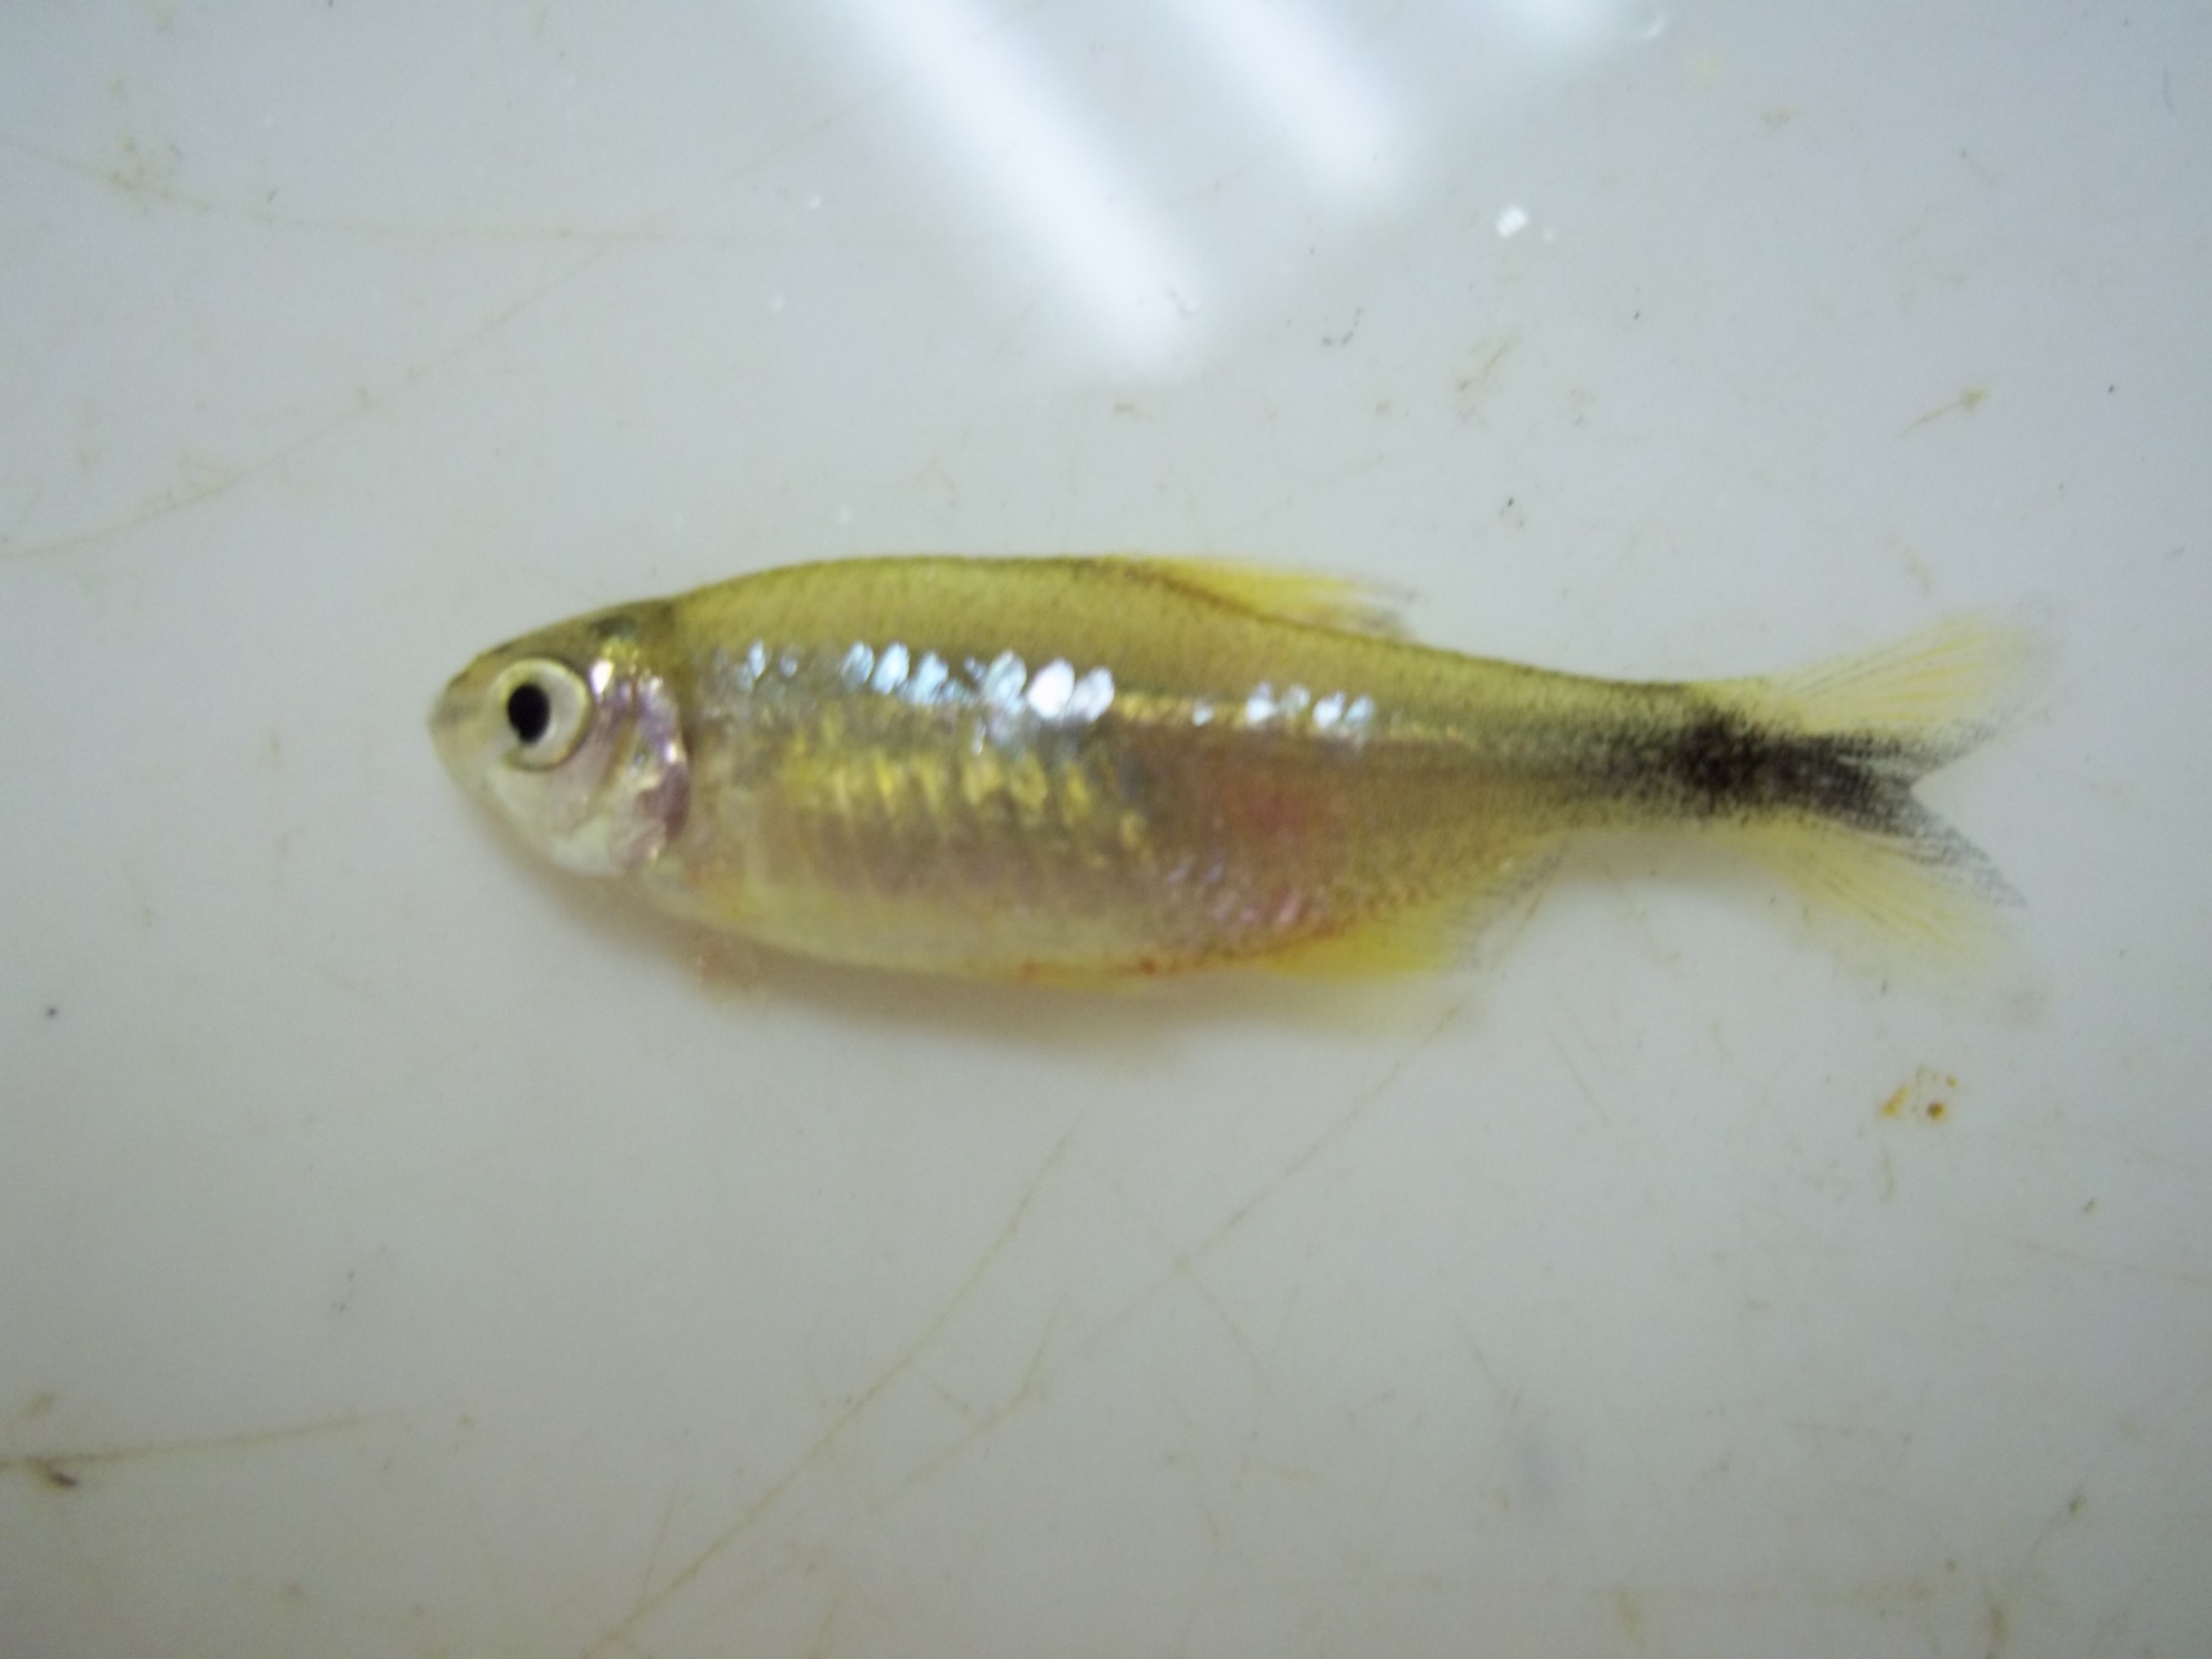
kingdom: Animalia
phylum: Chordata
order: Characiformes
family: Characidae
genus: Hasemania
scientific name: Hasemania nana
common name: Silver tip
